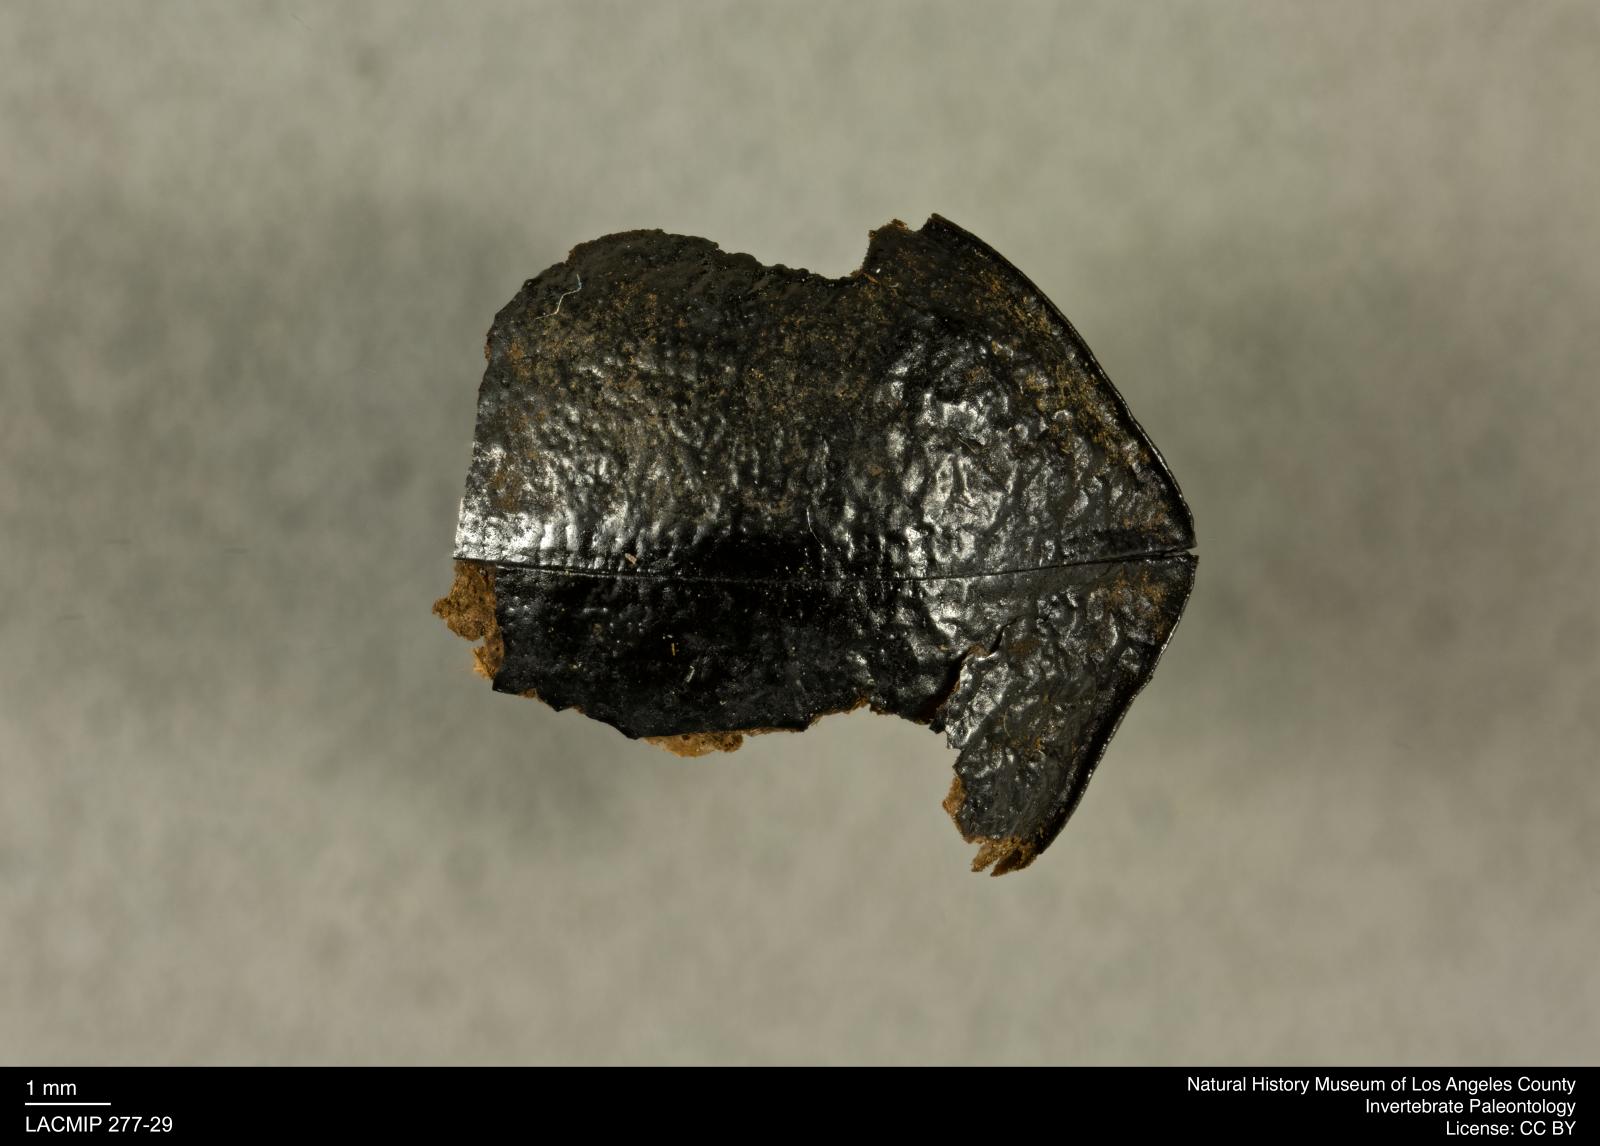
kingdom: Animalia
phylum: Arthropoda
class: Insecta
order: Coleoptera
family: Tenebrionidae
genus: Coniontis
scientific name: Coniontis abdominalis
